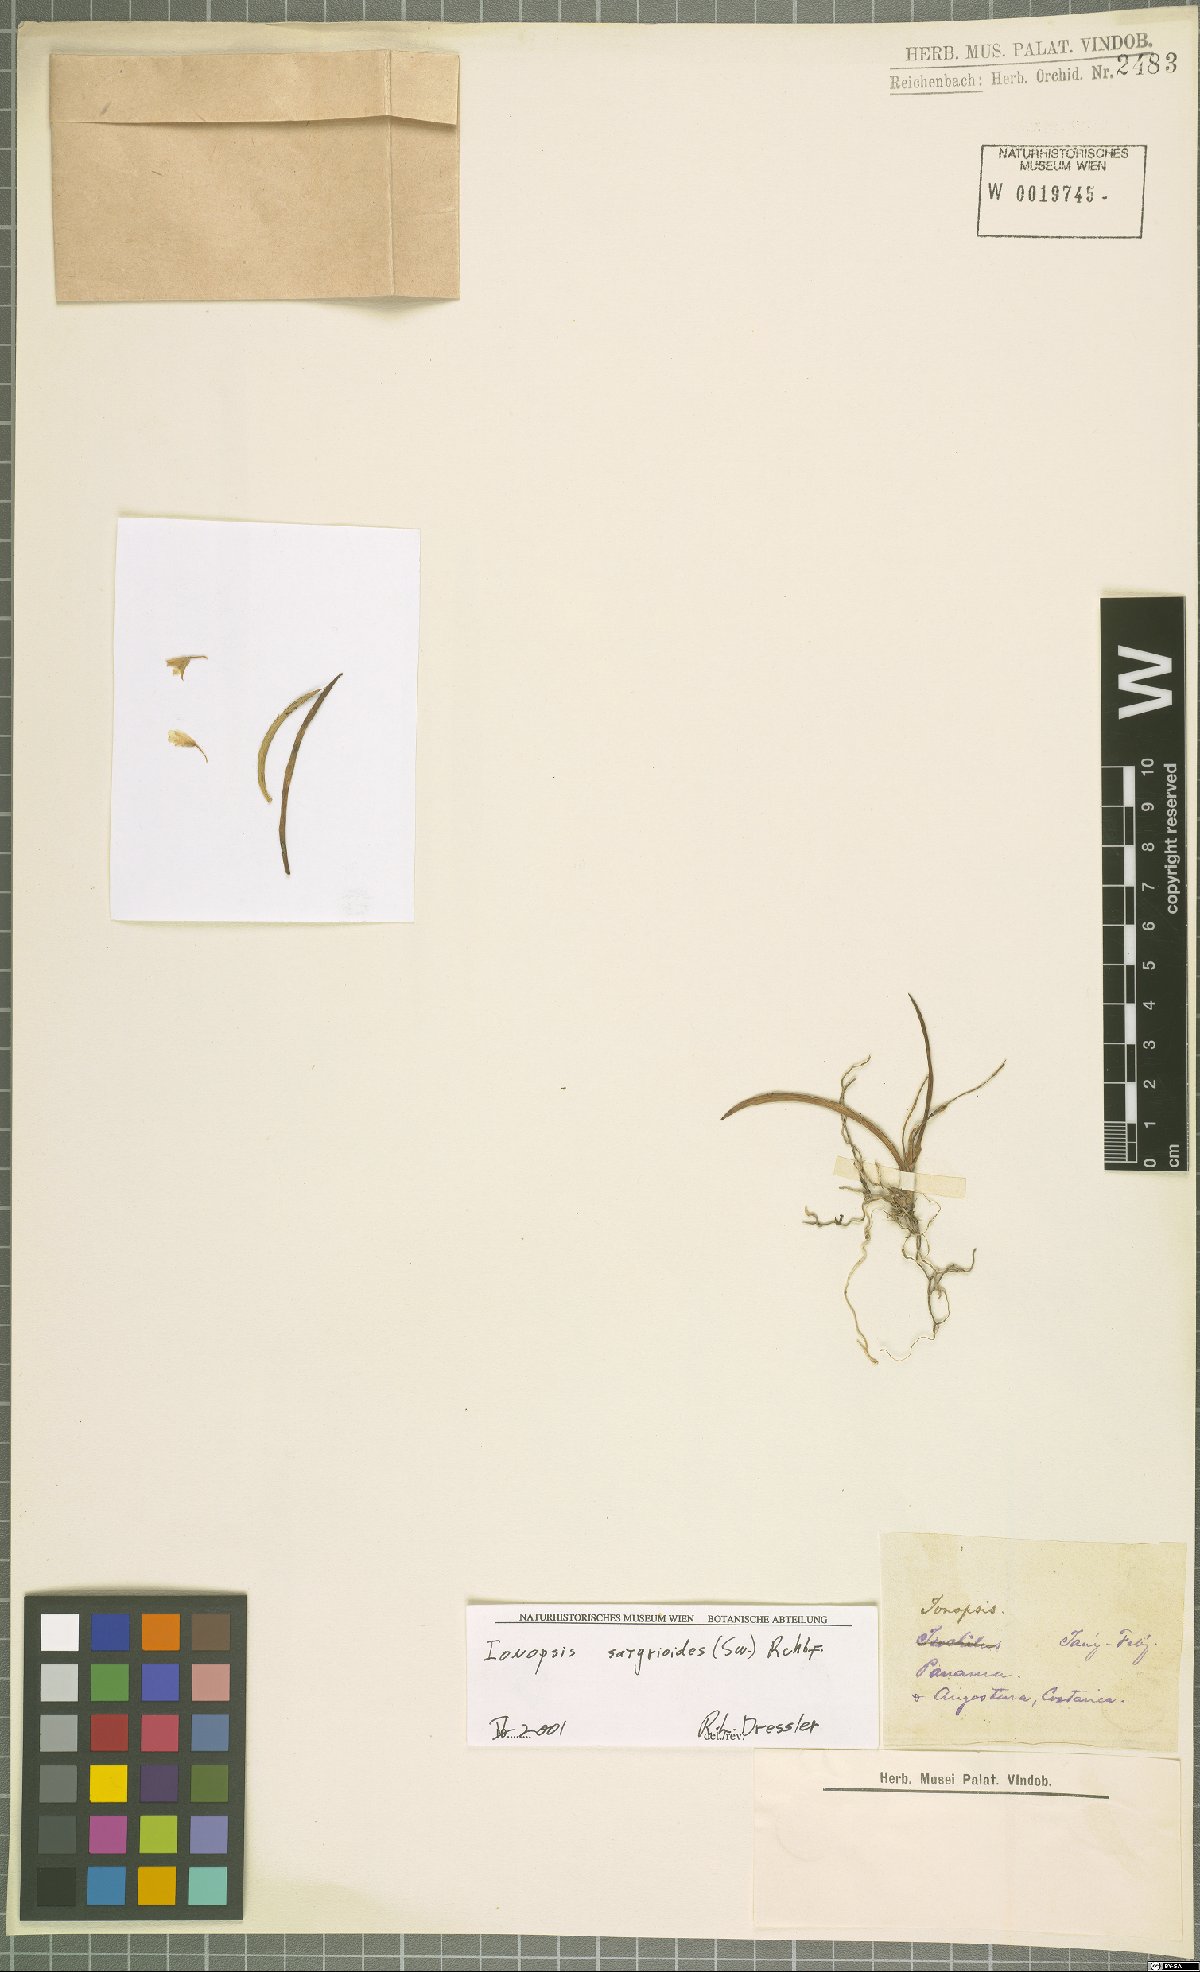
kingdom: Plantae
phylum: Tracheophyta
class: Liliopsida
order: Asparagales
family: Orchidaceae
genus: Ionopsis
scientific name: Ionopsis satyrioides
